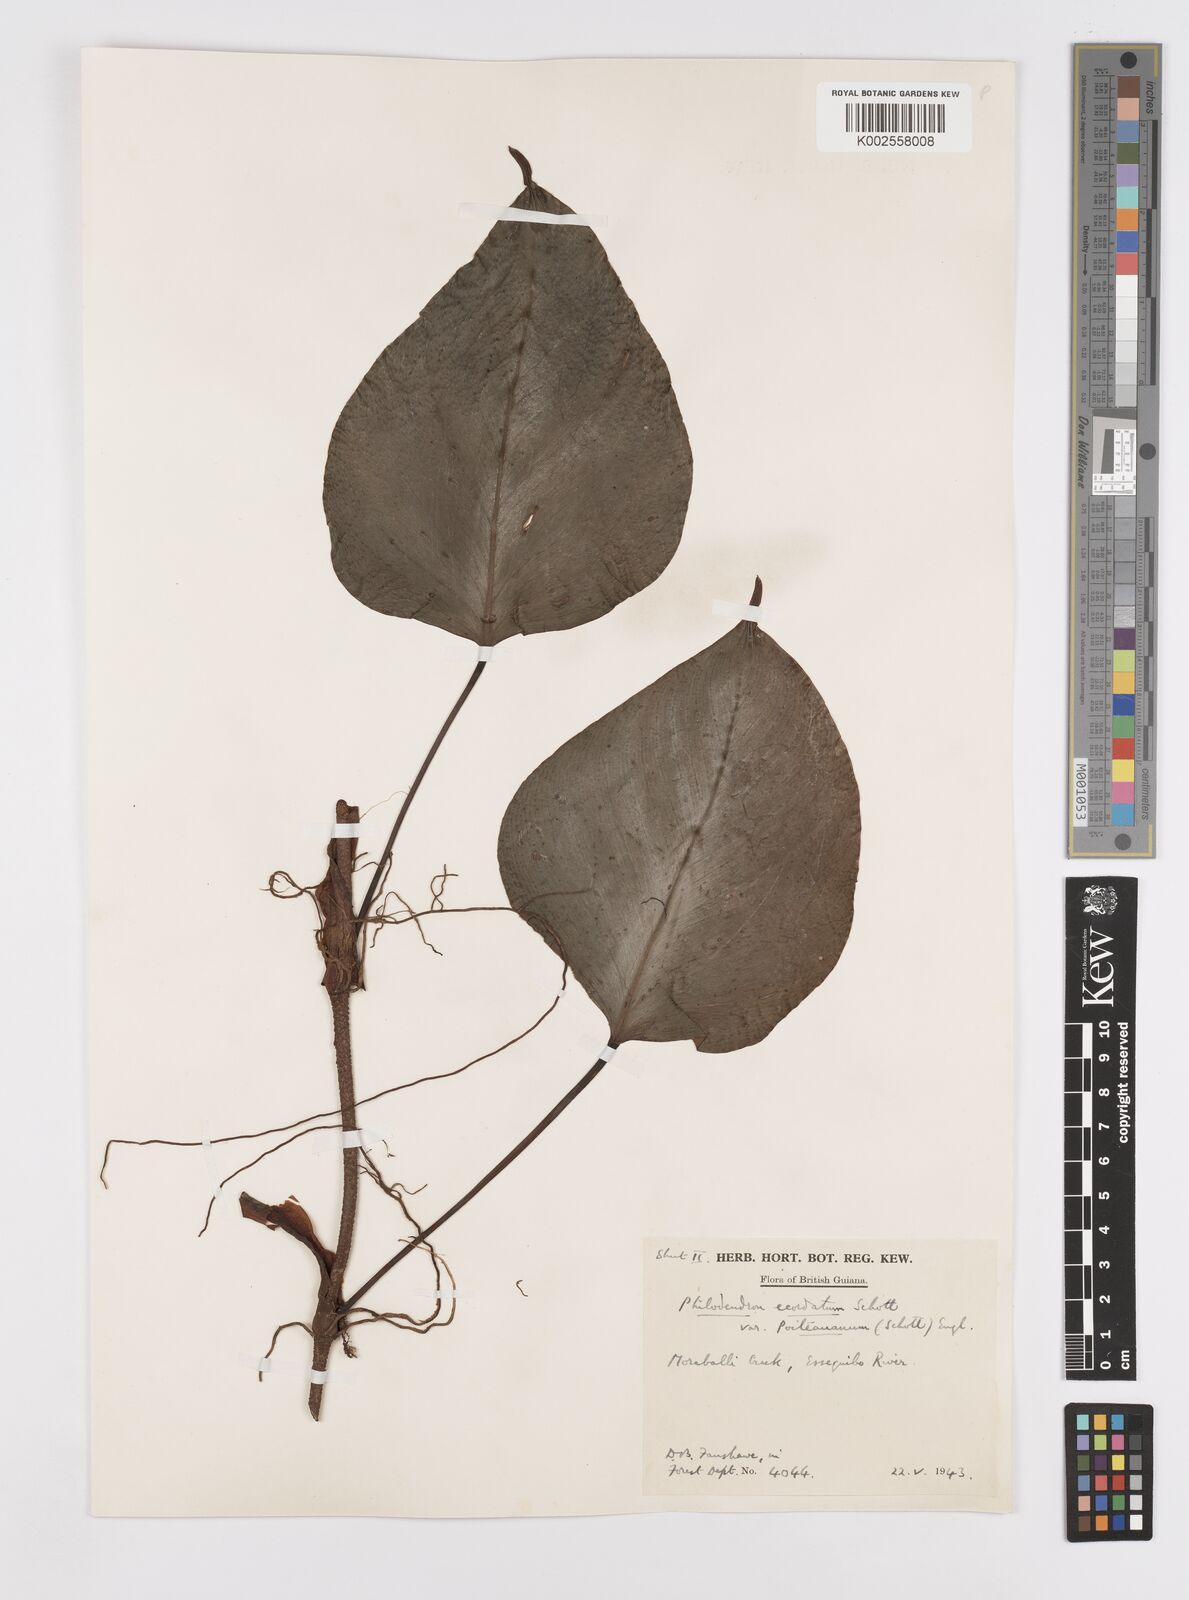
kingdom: Plantae
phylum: Tracheophyta
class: Liliopsida
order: Alismatales
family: Araceae
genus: Philodendron
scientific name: Philodendron ecordatum
